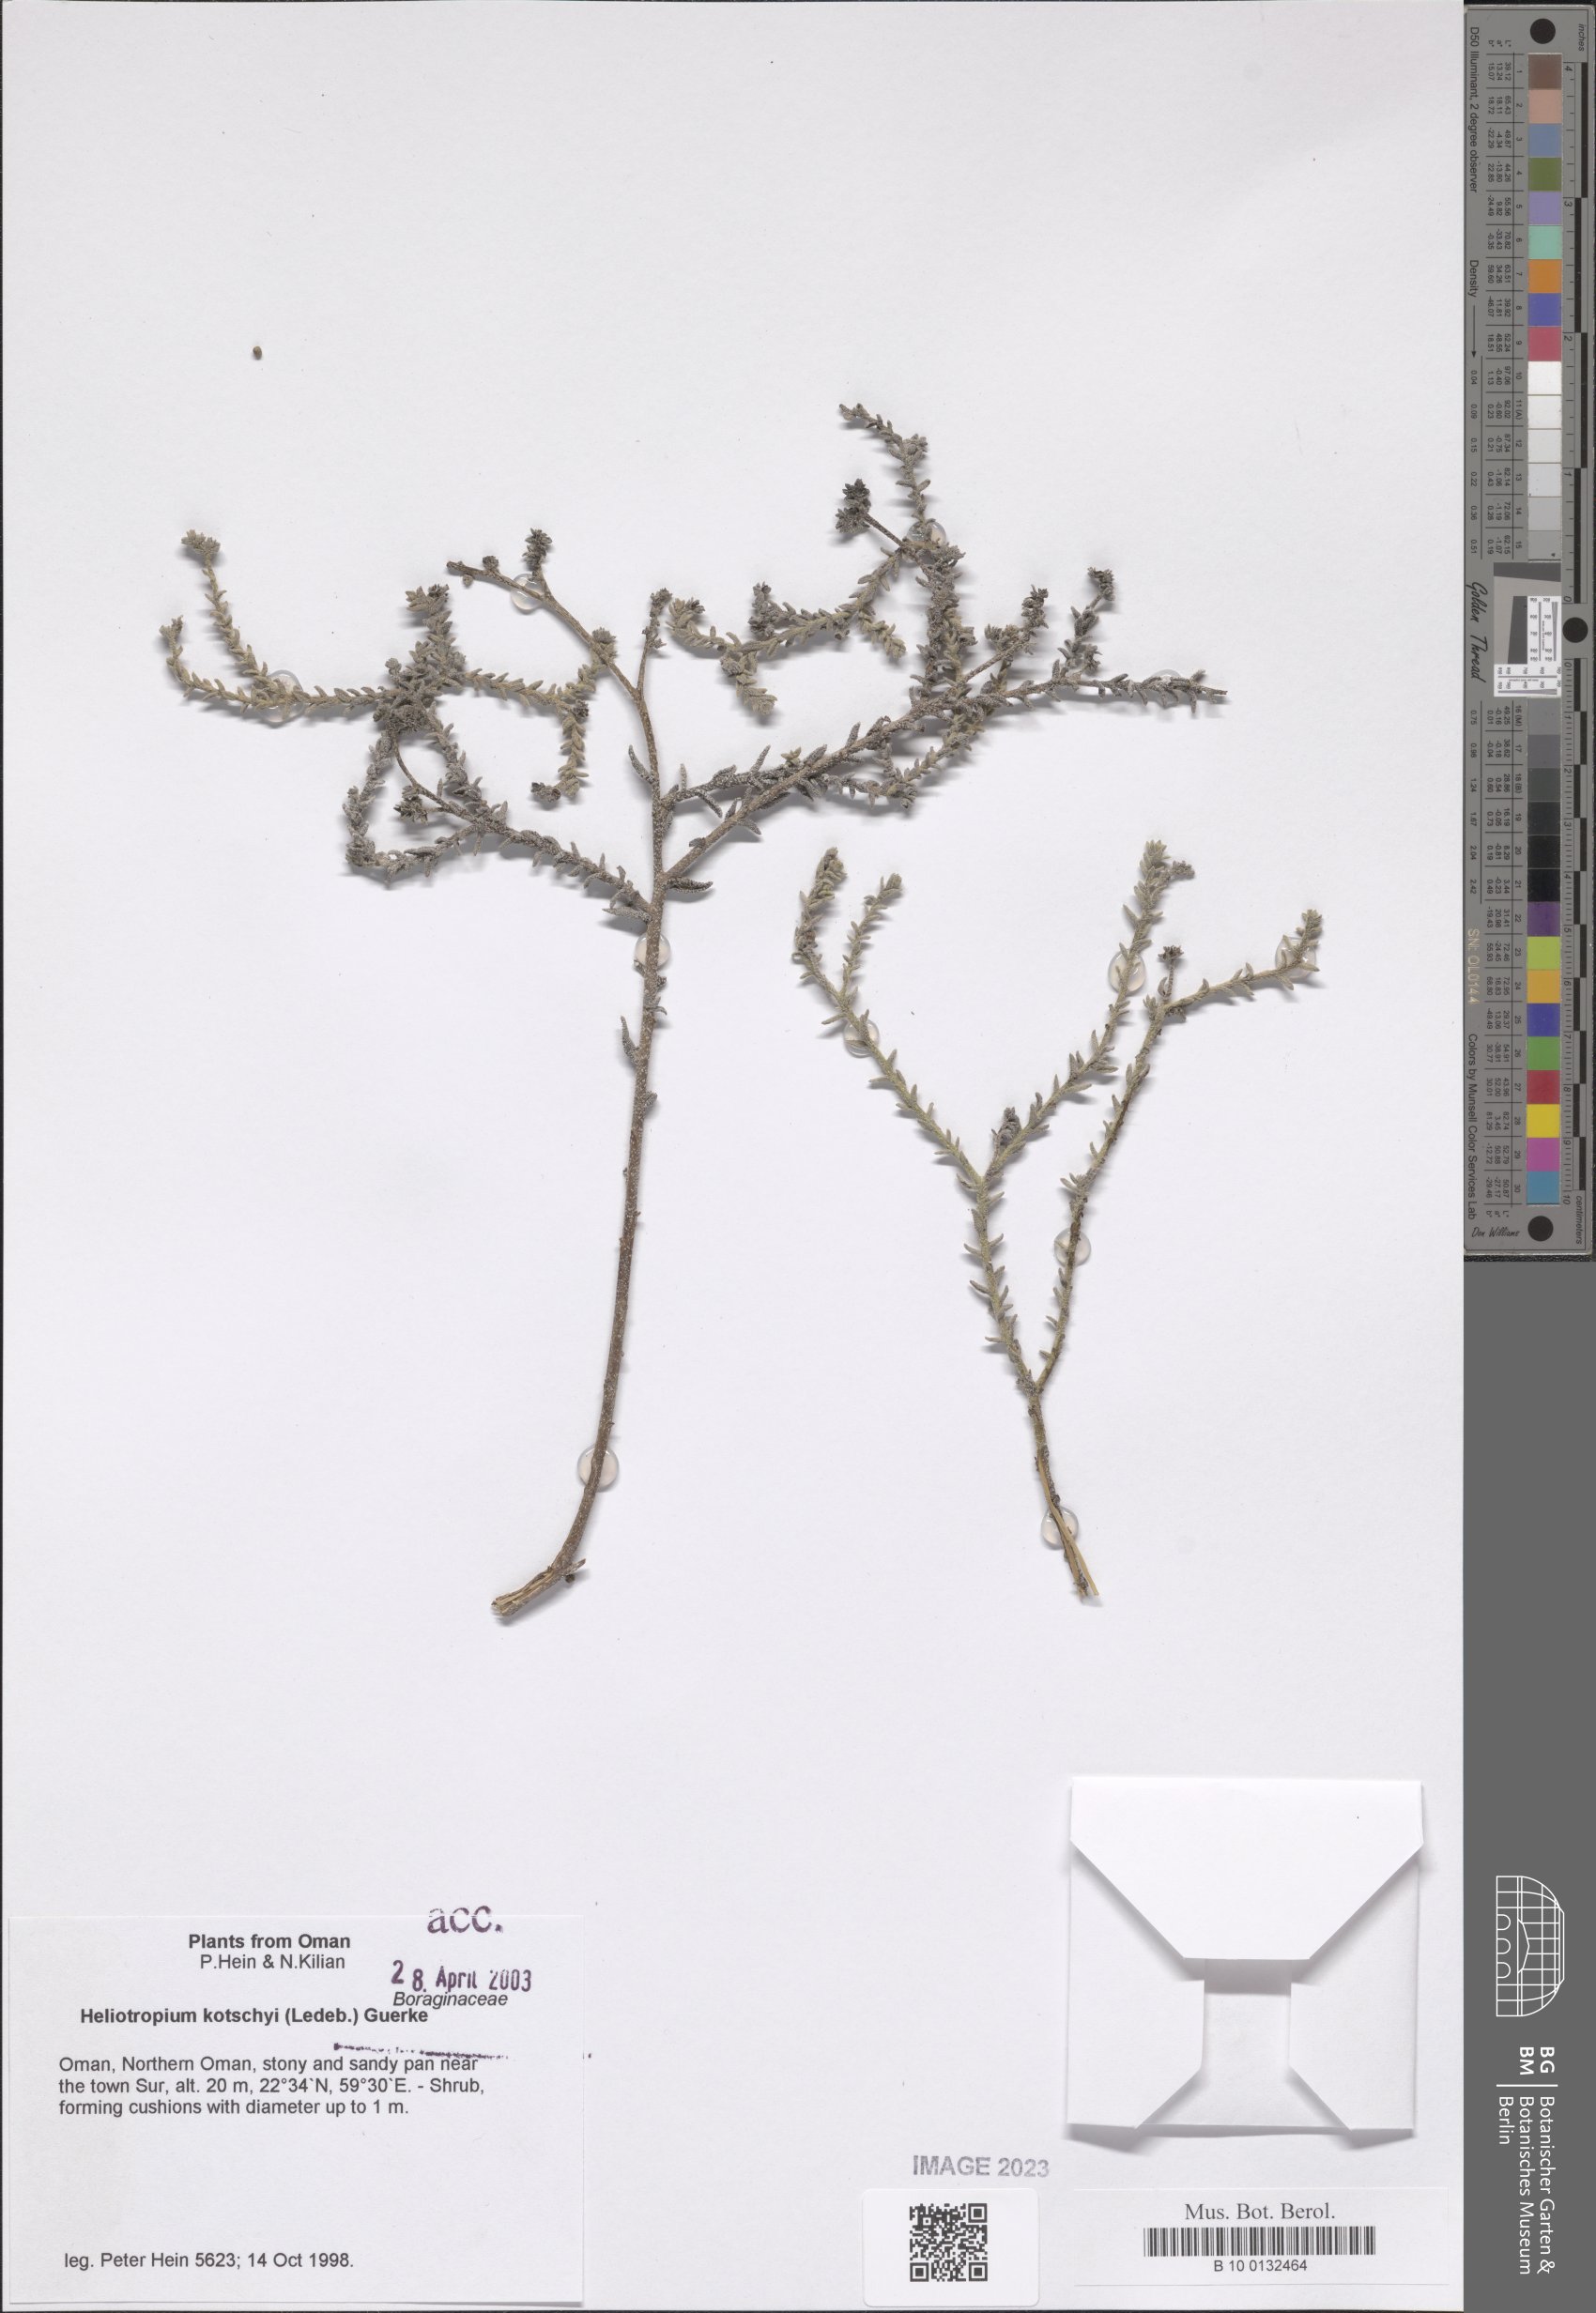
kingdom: Plantae
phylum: Tracheophyta
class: Magnoliopsida
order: Boraginales
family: Heliotropiaceae
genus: Heliotropium
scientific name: Heliotropium ramosissimum
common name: Wavy heliotrope
